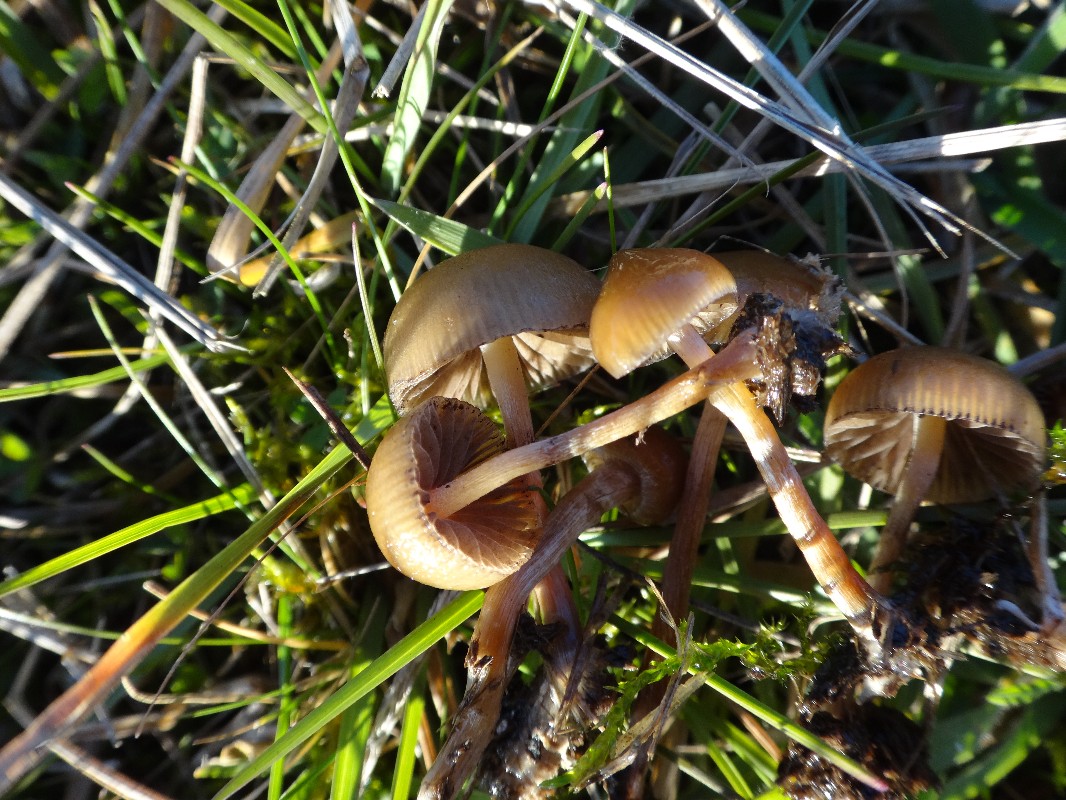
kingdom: Fungi
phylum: Basidiomycota
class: Agaricomycetes
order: Agaricales
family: Hymenogastraceae
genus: Psilocybe
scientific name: Psilocybe fimetaria
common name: prægtig nøgenhat
